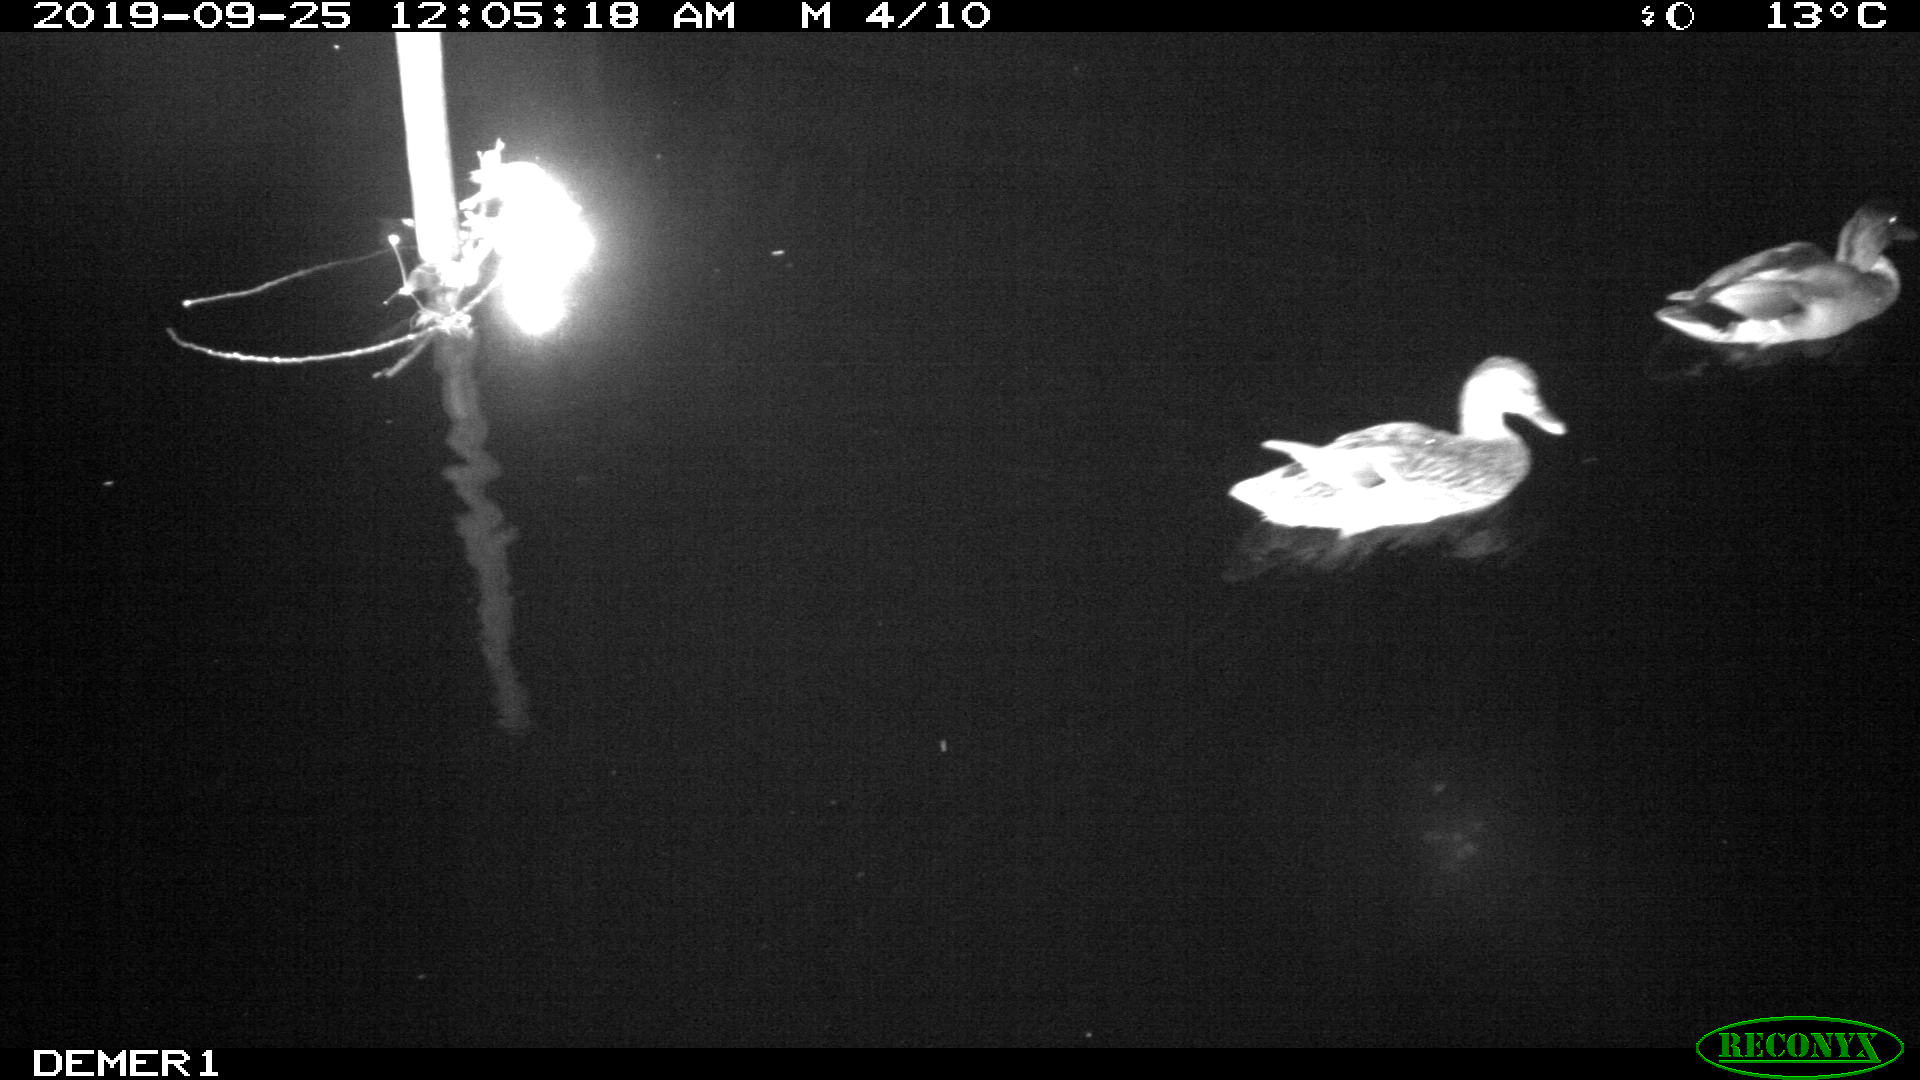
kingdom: Animalia
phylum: Chordata
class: Aves
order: Anseriformes
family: Anatidae
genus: Anas
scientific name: Anas platyrhynchos
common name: Mallard
